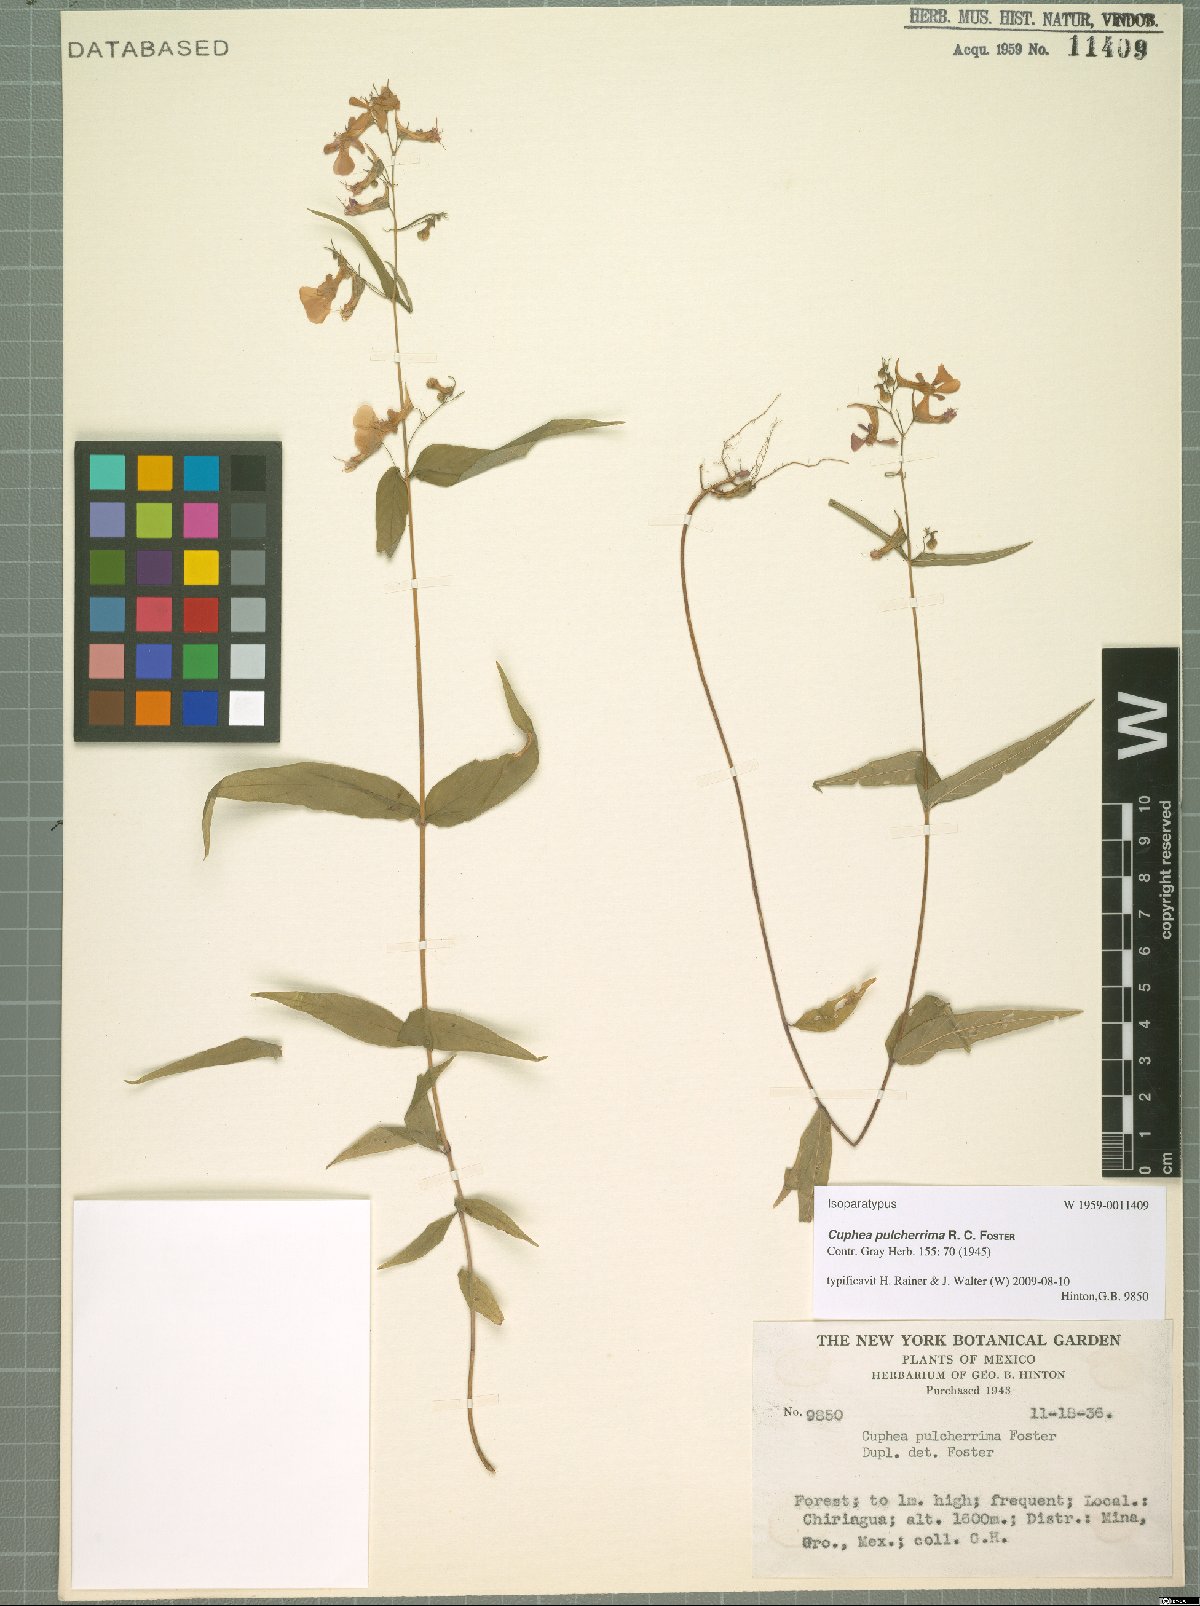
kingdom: Plantae
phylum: Tracheophyta
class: Magnoliopsida
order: Myrtales
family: Lythraceae
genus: Cuphea
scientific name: Cuphea avigera
